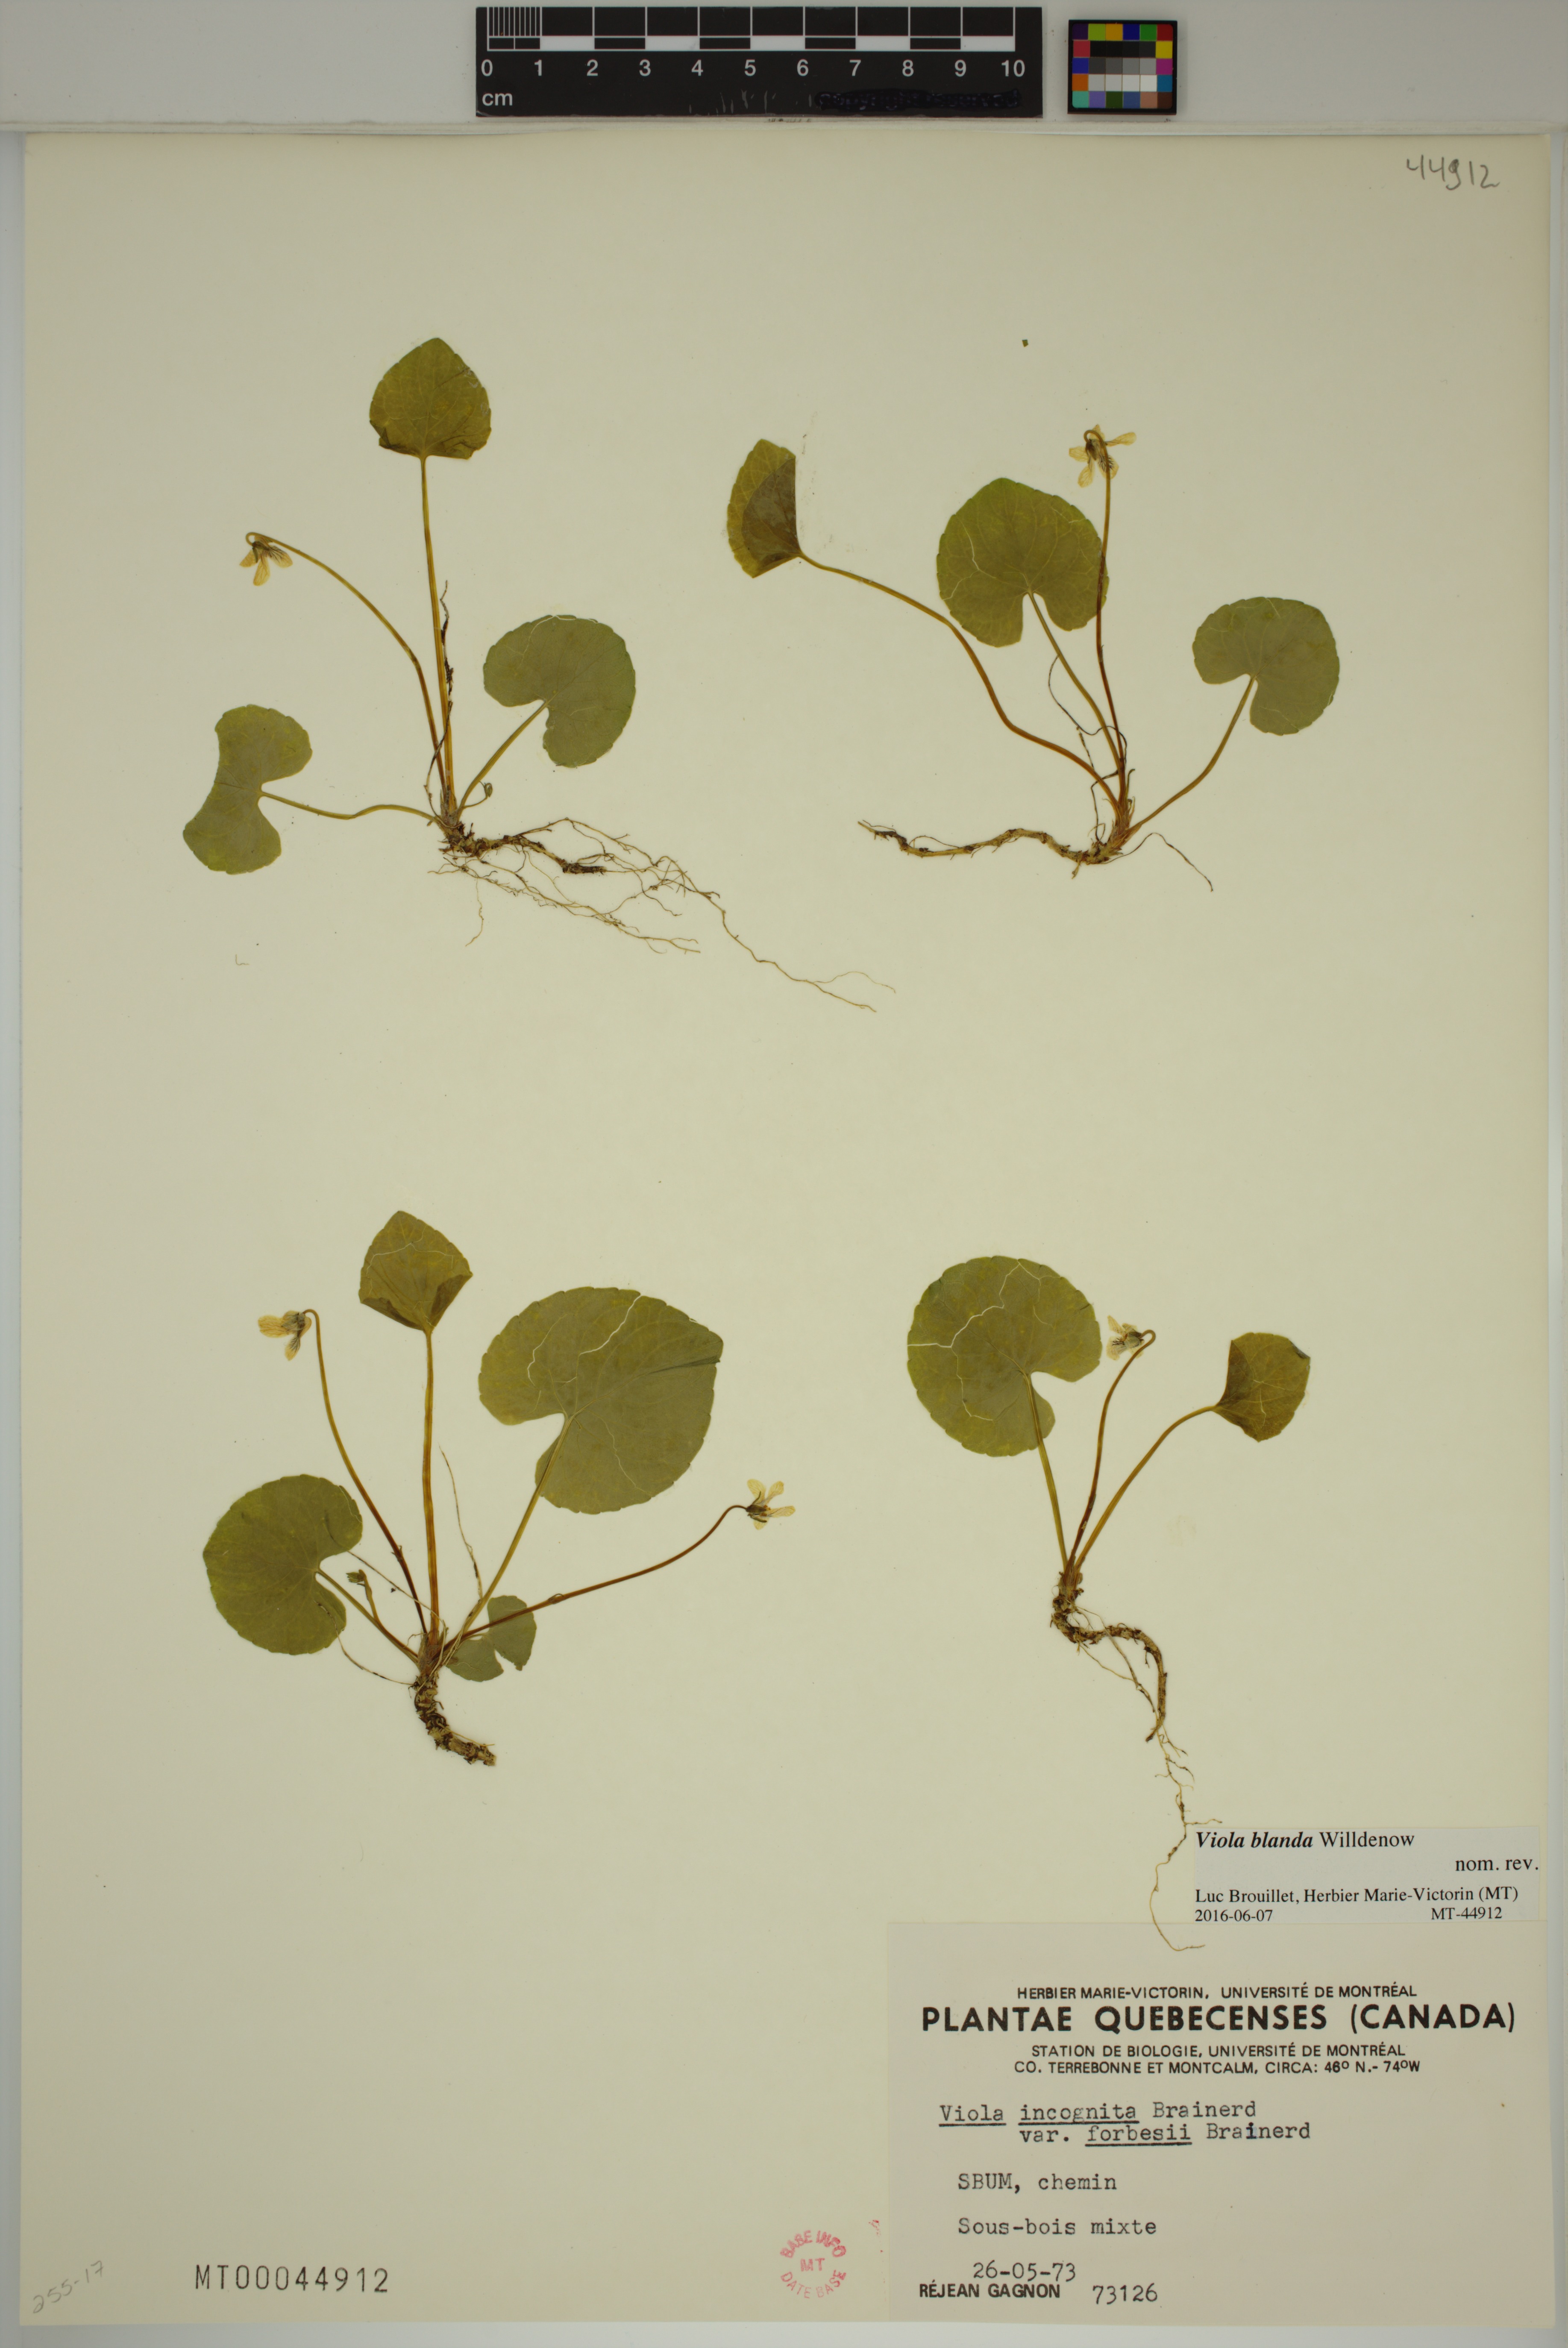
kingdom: Plantae
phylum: Tracheophyta
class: Magnoliopsida
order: Malpighiales
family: Violaceae
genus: Viola
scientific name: Viola blanda
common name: Sweet white violet
